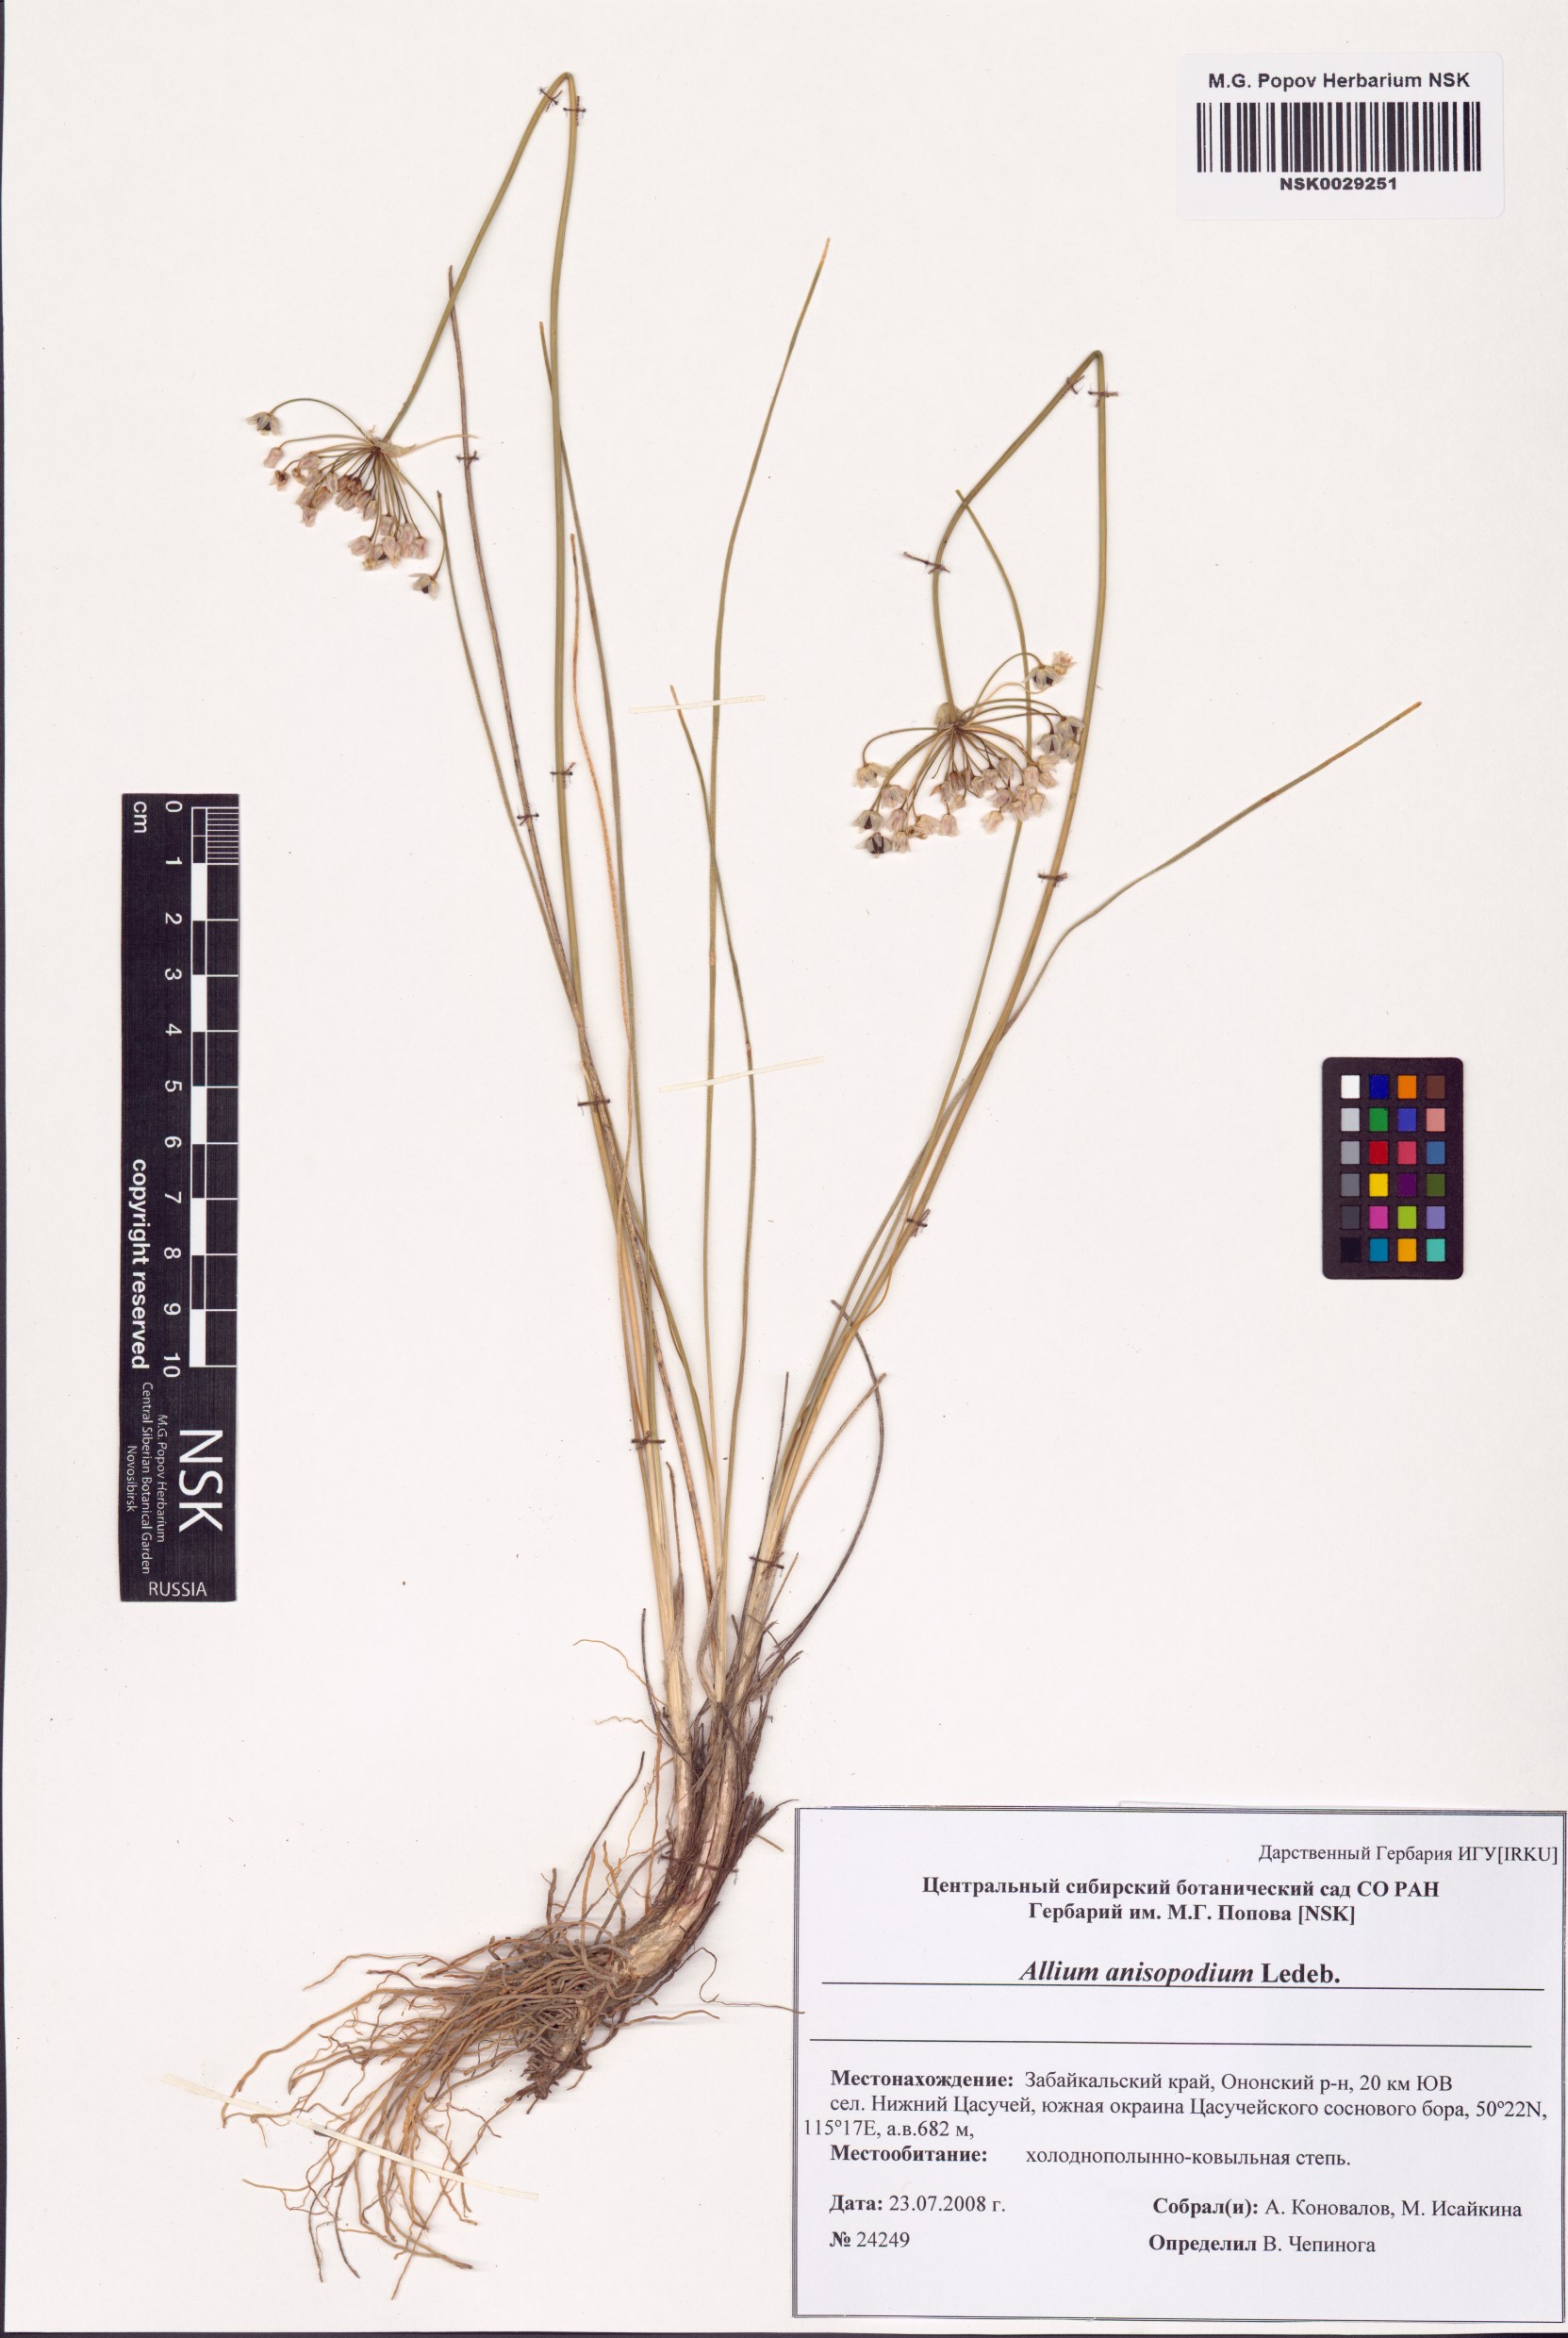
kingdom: Plantae
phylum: Tracheophyta
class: Liliopsida
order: Asparagales
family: Amaryllidaceae
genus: Allium
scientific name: Allium anisopodium
